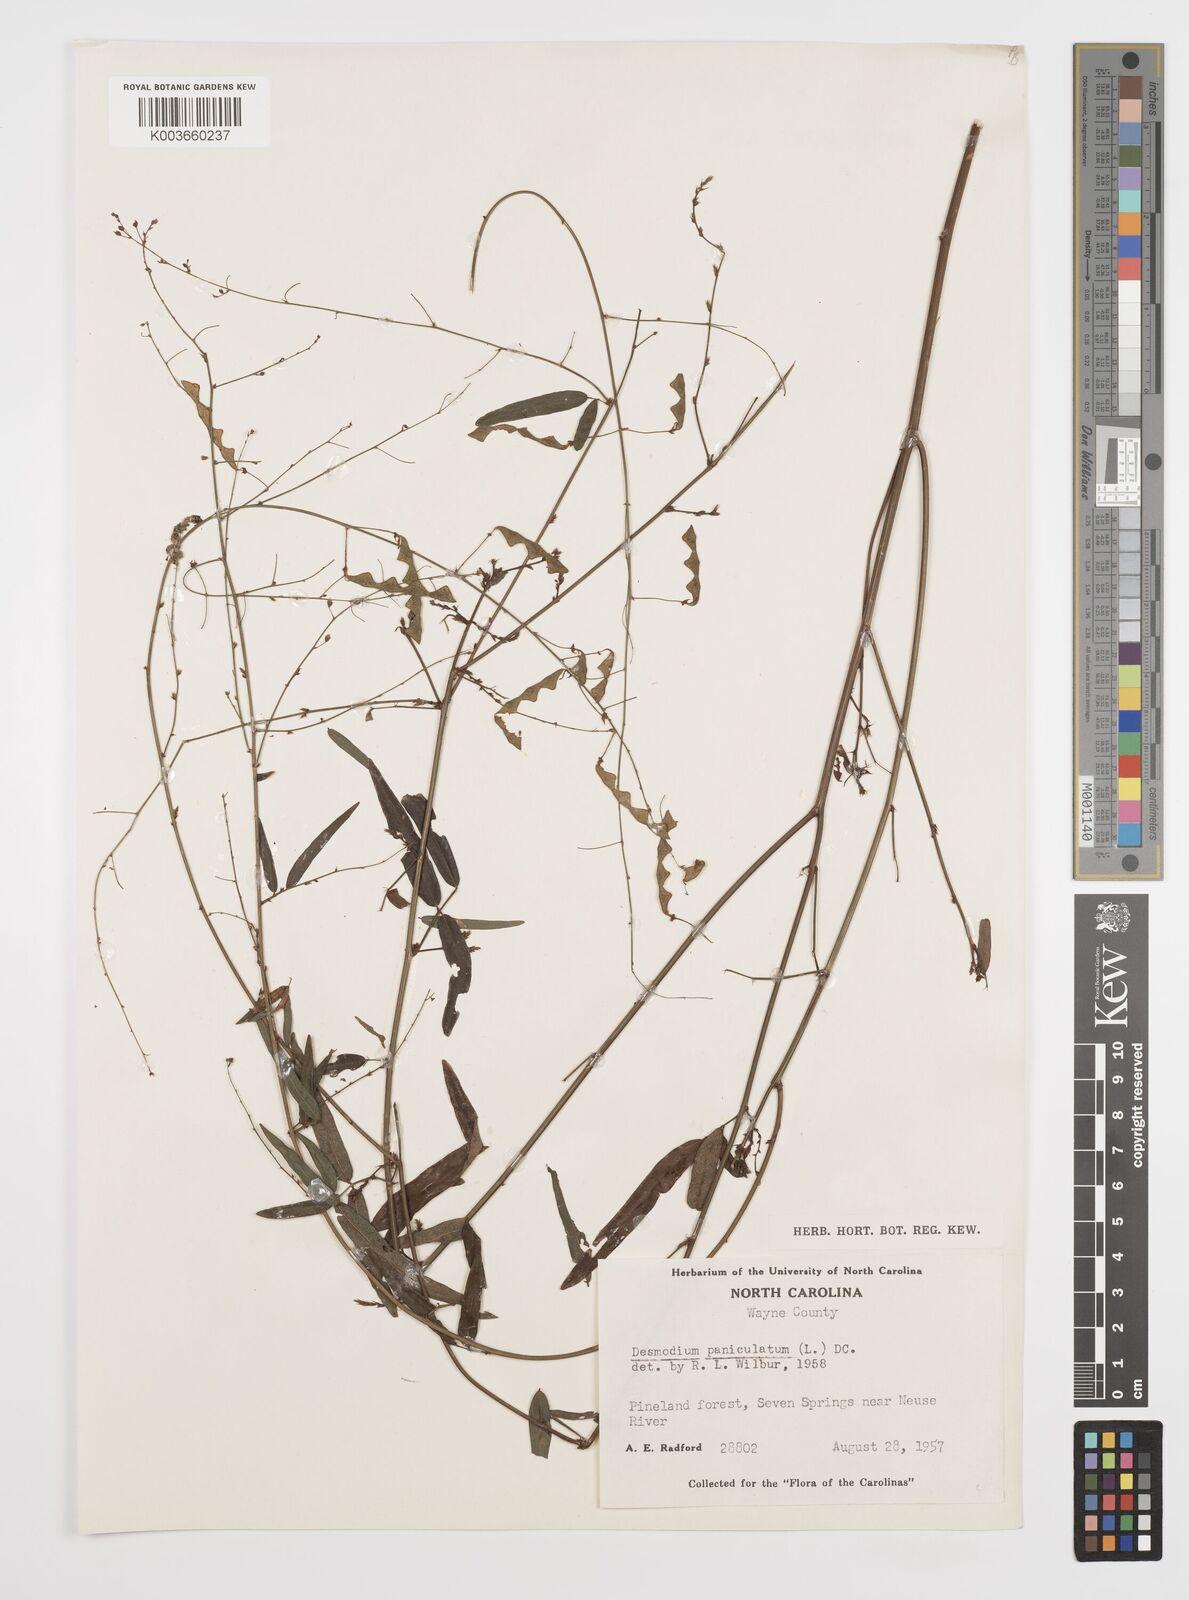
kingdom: Plantae
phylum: Tracheophyta
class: Magnoliopsida
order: Fabales
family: Fabaceae
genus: Desmodium
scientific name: Desmodium paniculatum
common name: Panicled tick-clover
